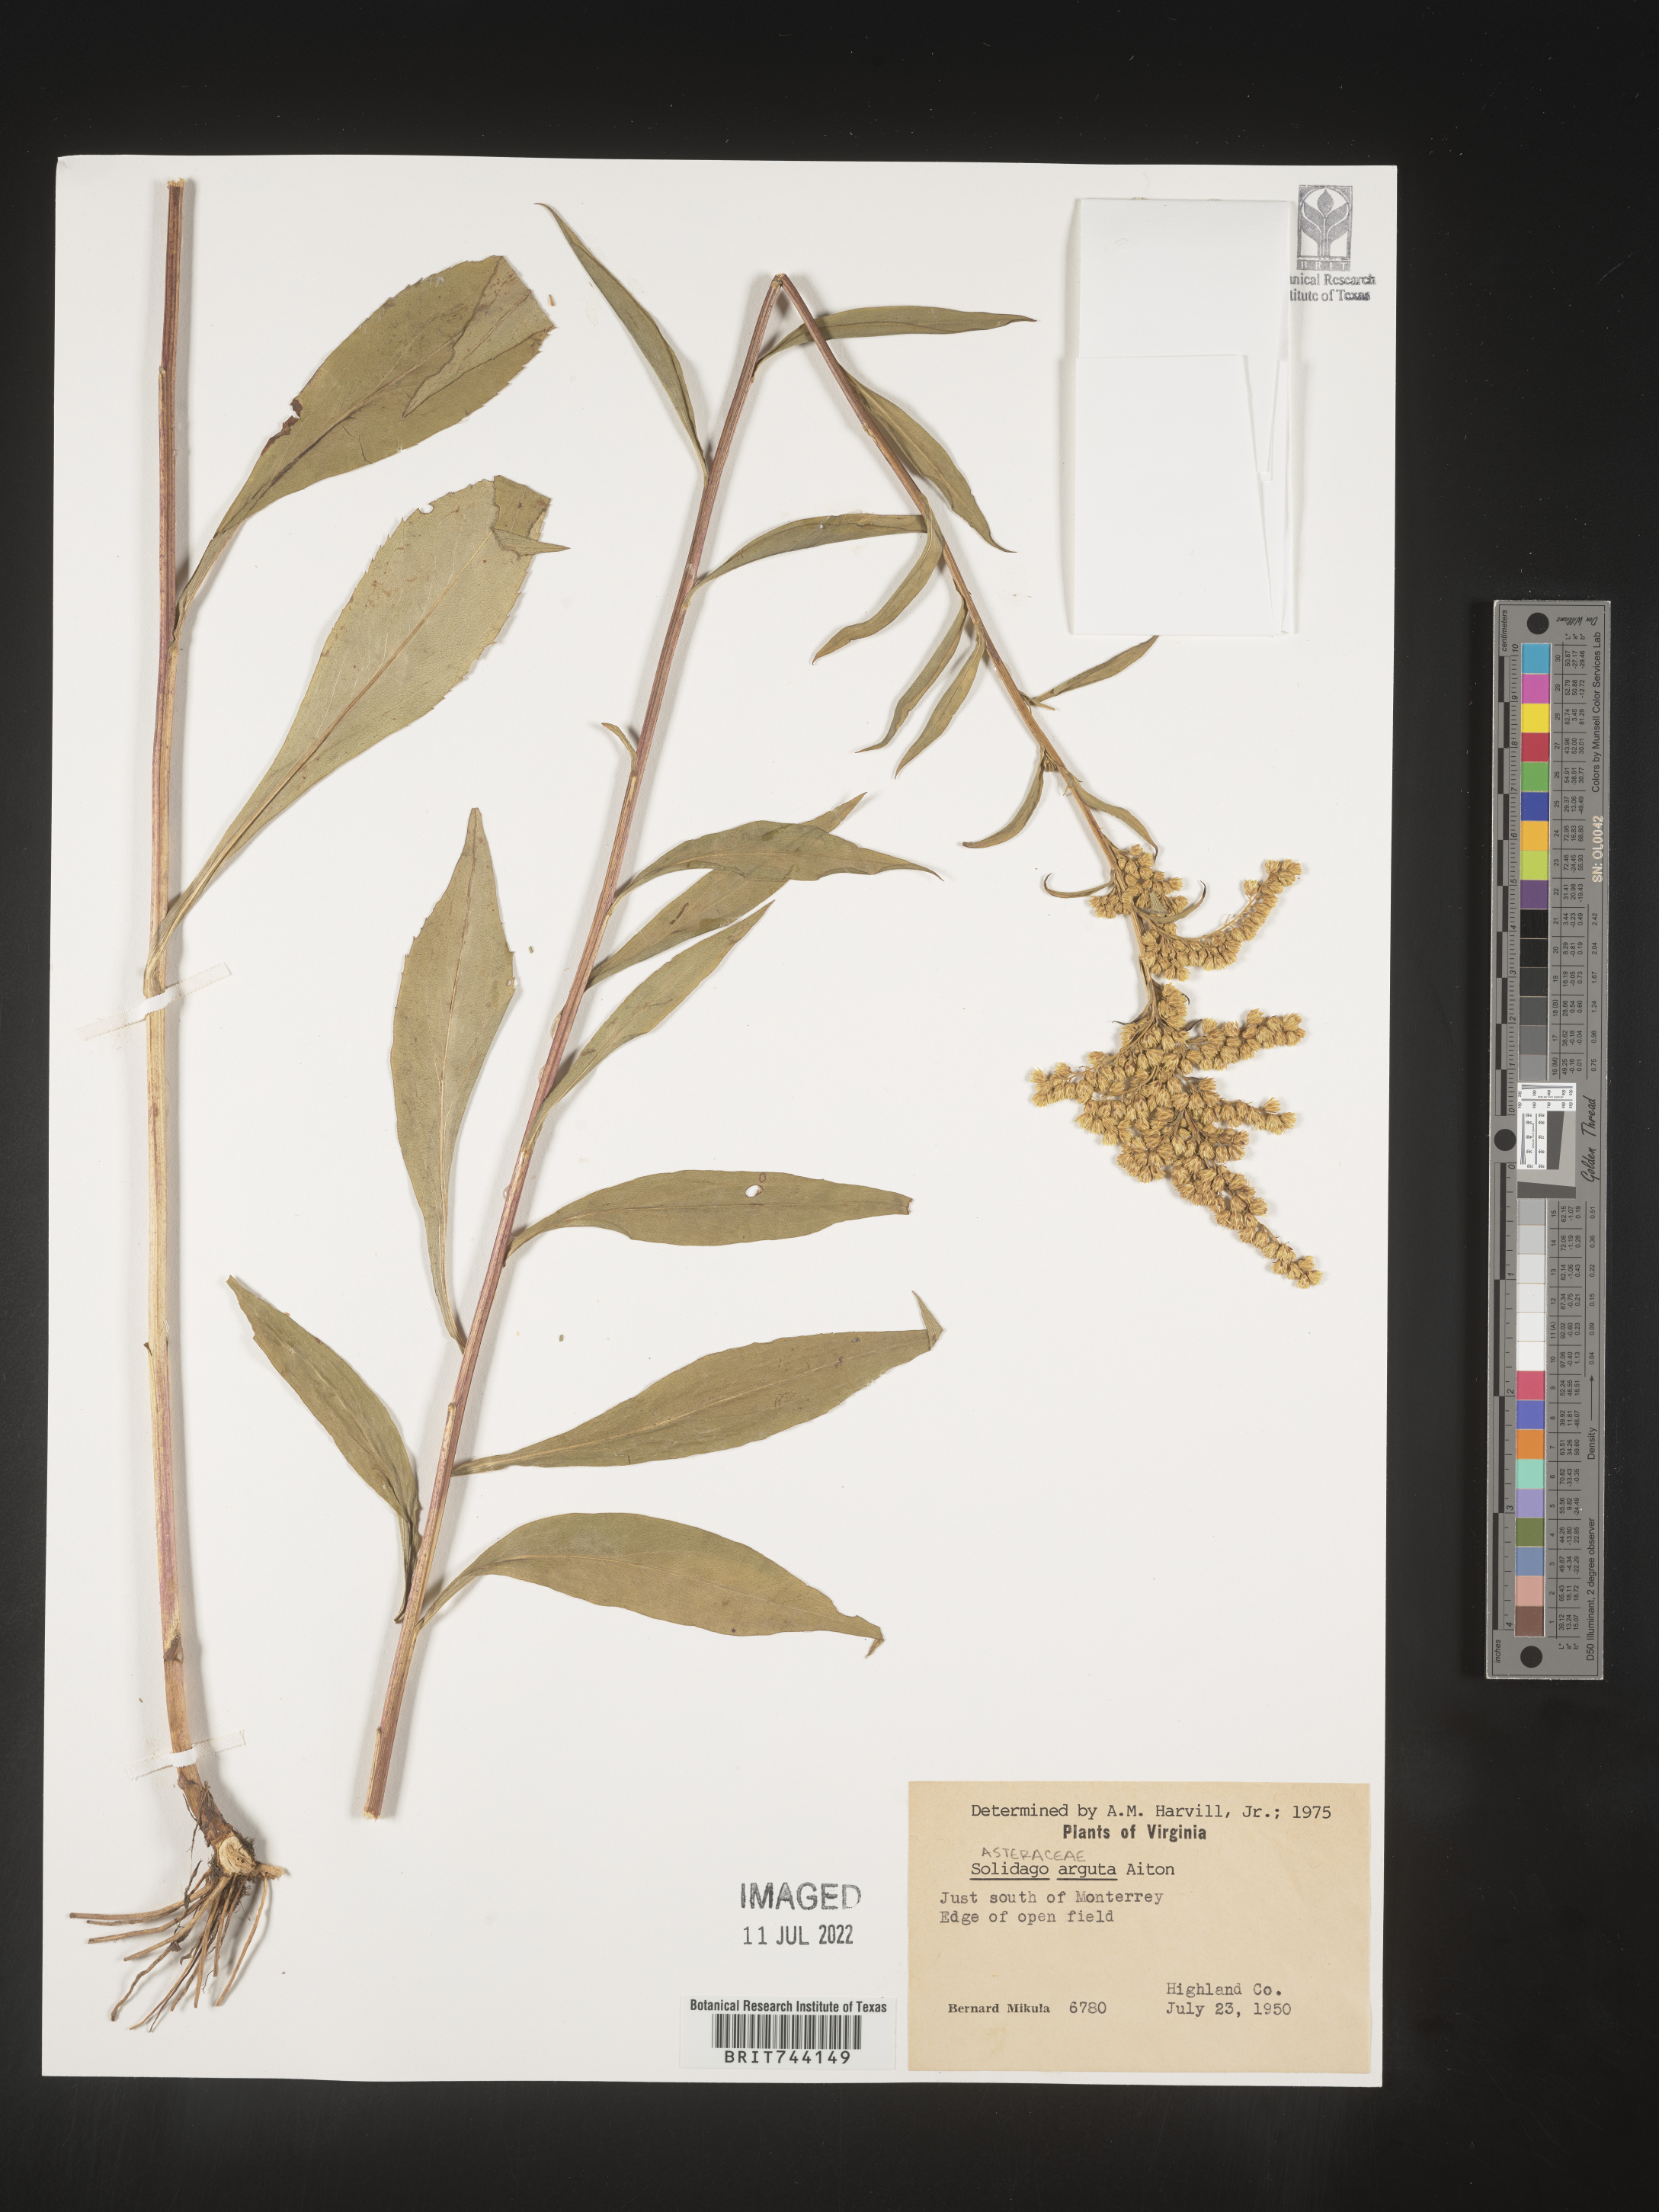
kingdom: Plantae
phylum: Tracheophyta
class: Magnoliopsida
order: Asterales
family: Asteraceae
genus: Solidago
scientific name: Solidago arguta
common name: Atlantic goldenrod
